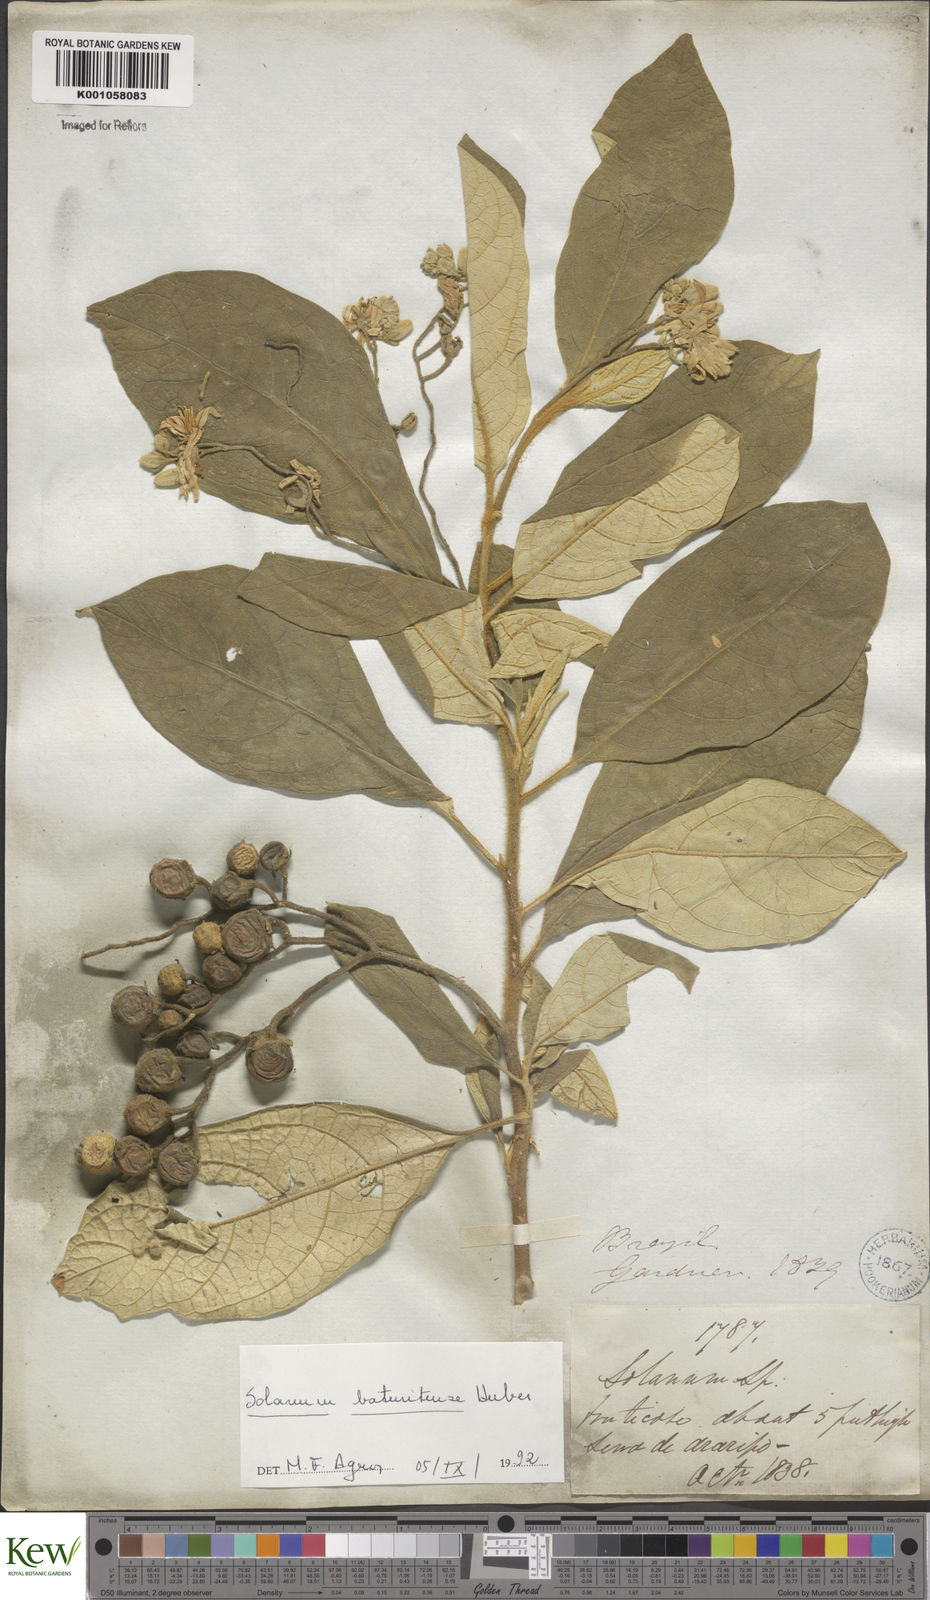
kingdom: Plantae
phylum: Tracheophyta
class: Magnoliopsida
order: Solanales
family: Solanaceae
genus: Solanum
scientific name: Solanum rhytidoandrum
